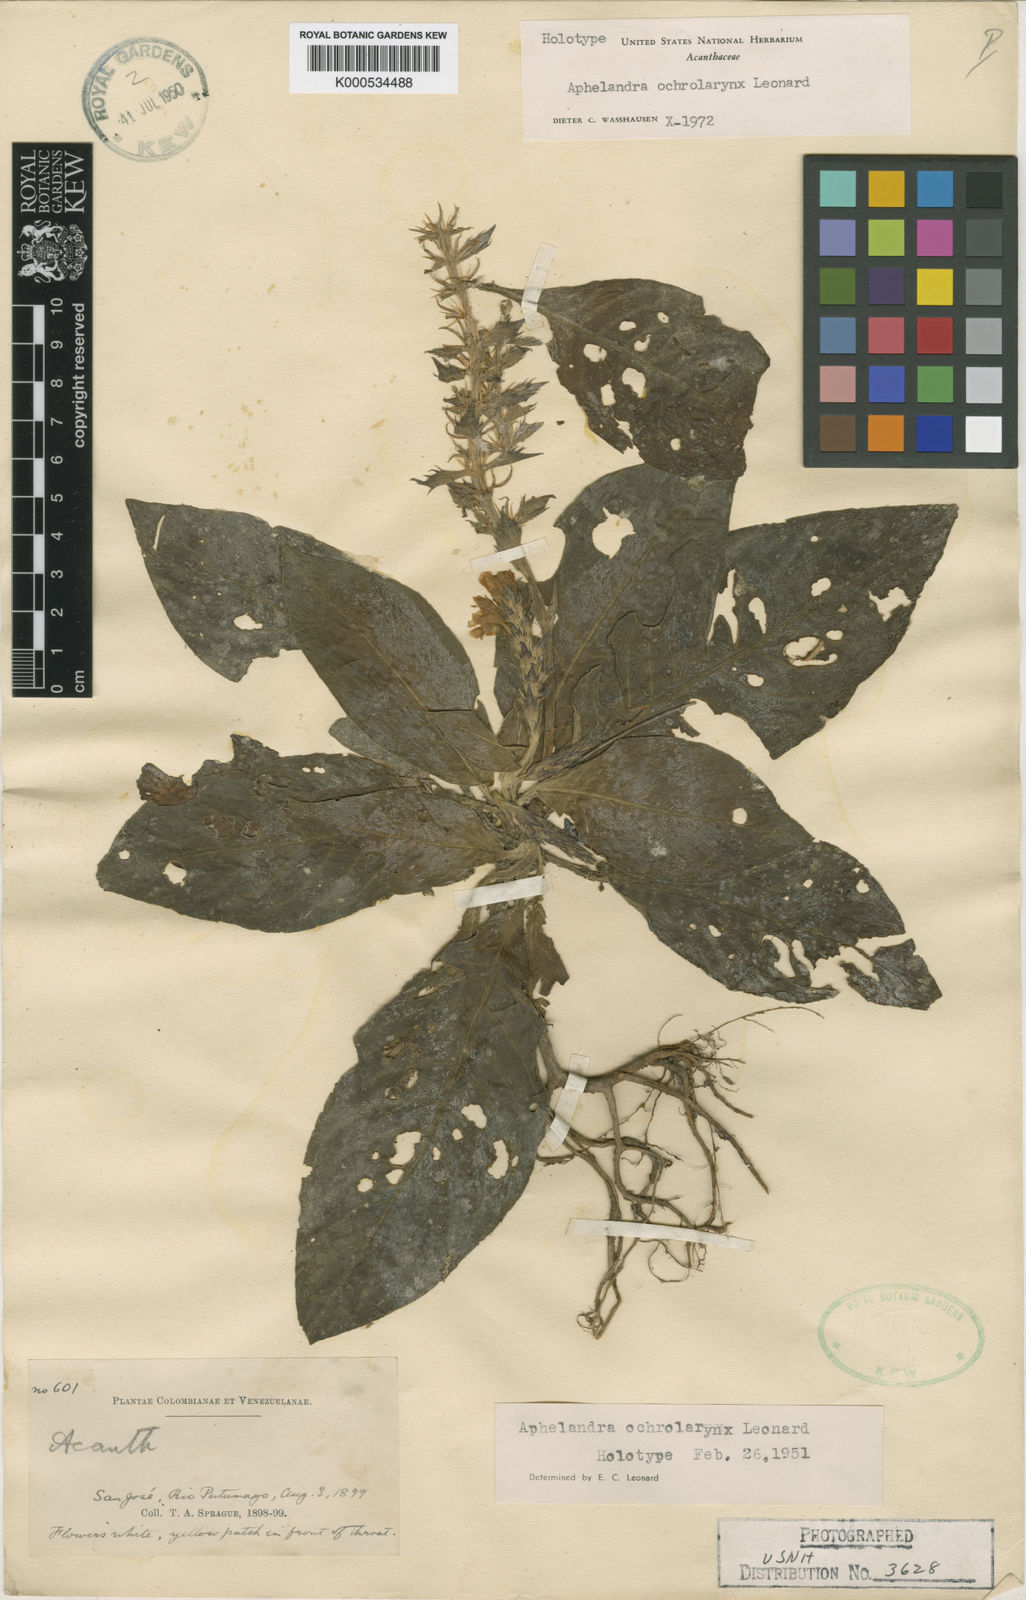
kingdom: Plantae
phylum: Tracheophyta
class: Magnoliopsida
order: Lamiales
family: Acanthaceae
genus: Aphelandra
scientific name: Aphelandra rosulata
